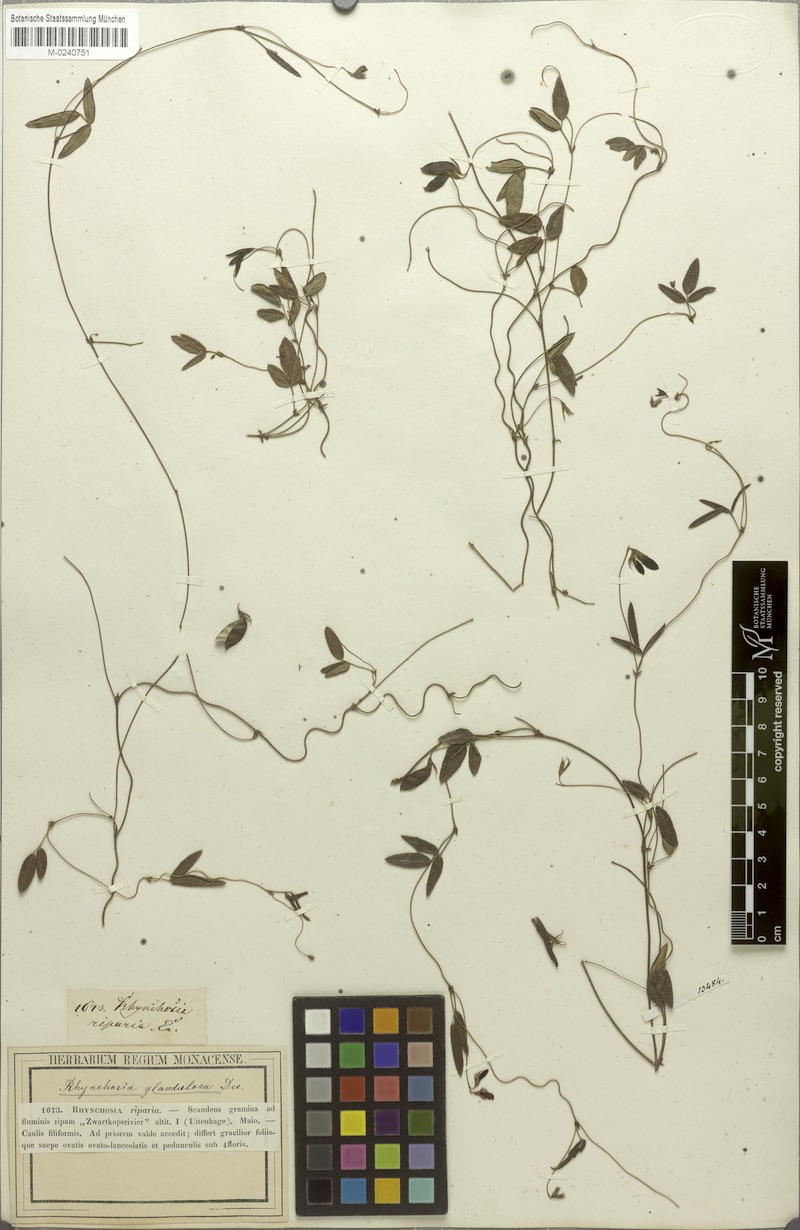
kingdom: Plantae
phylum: Tracheophyta
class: Magnoliopsida
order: Fabales
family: Fabaceae
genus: Rhynchosia
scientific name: Rhynchosia capensis
